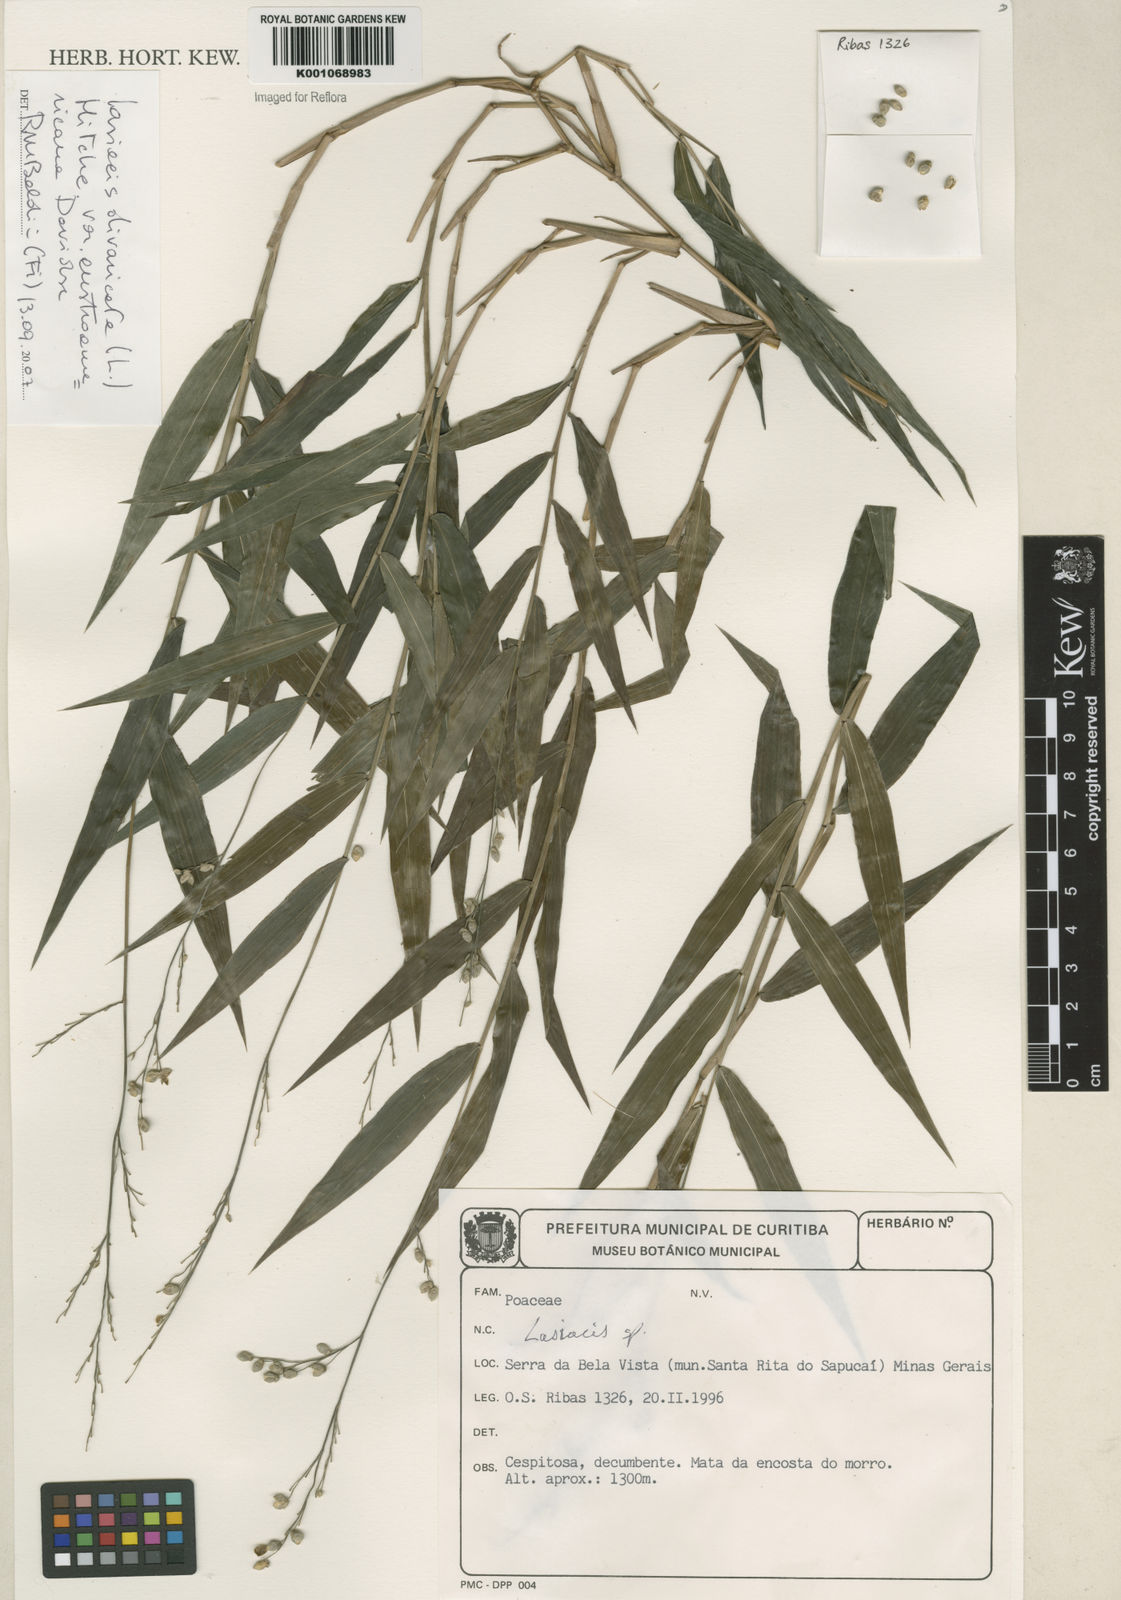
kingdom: Plantae
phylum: Tracheophyta
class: Liliopsida
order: Poales
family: Poaceae
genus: Lasiacis
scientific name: Lasiacis divaricata
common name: Smallcane
